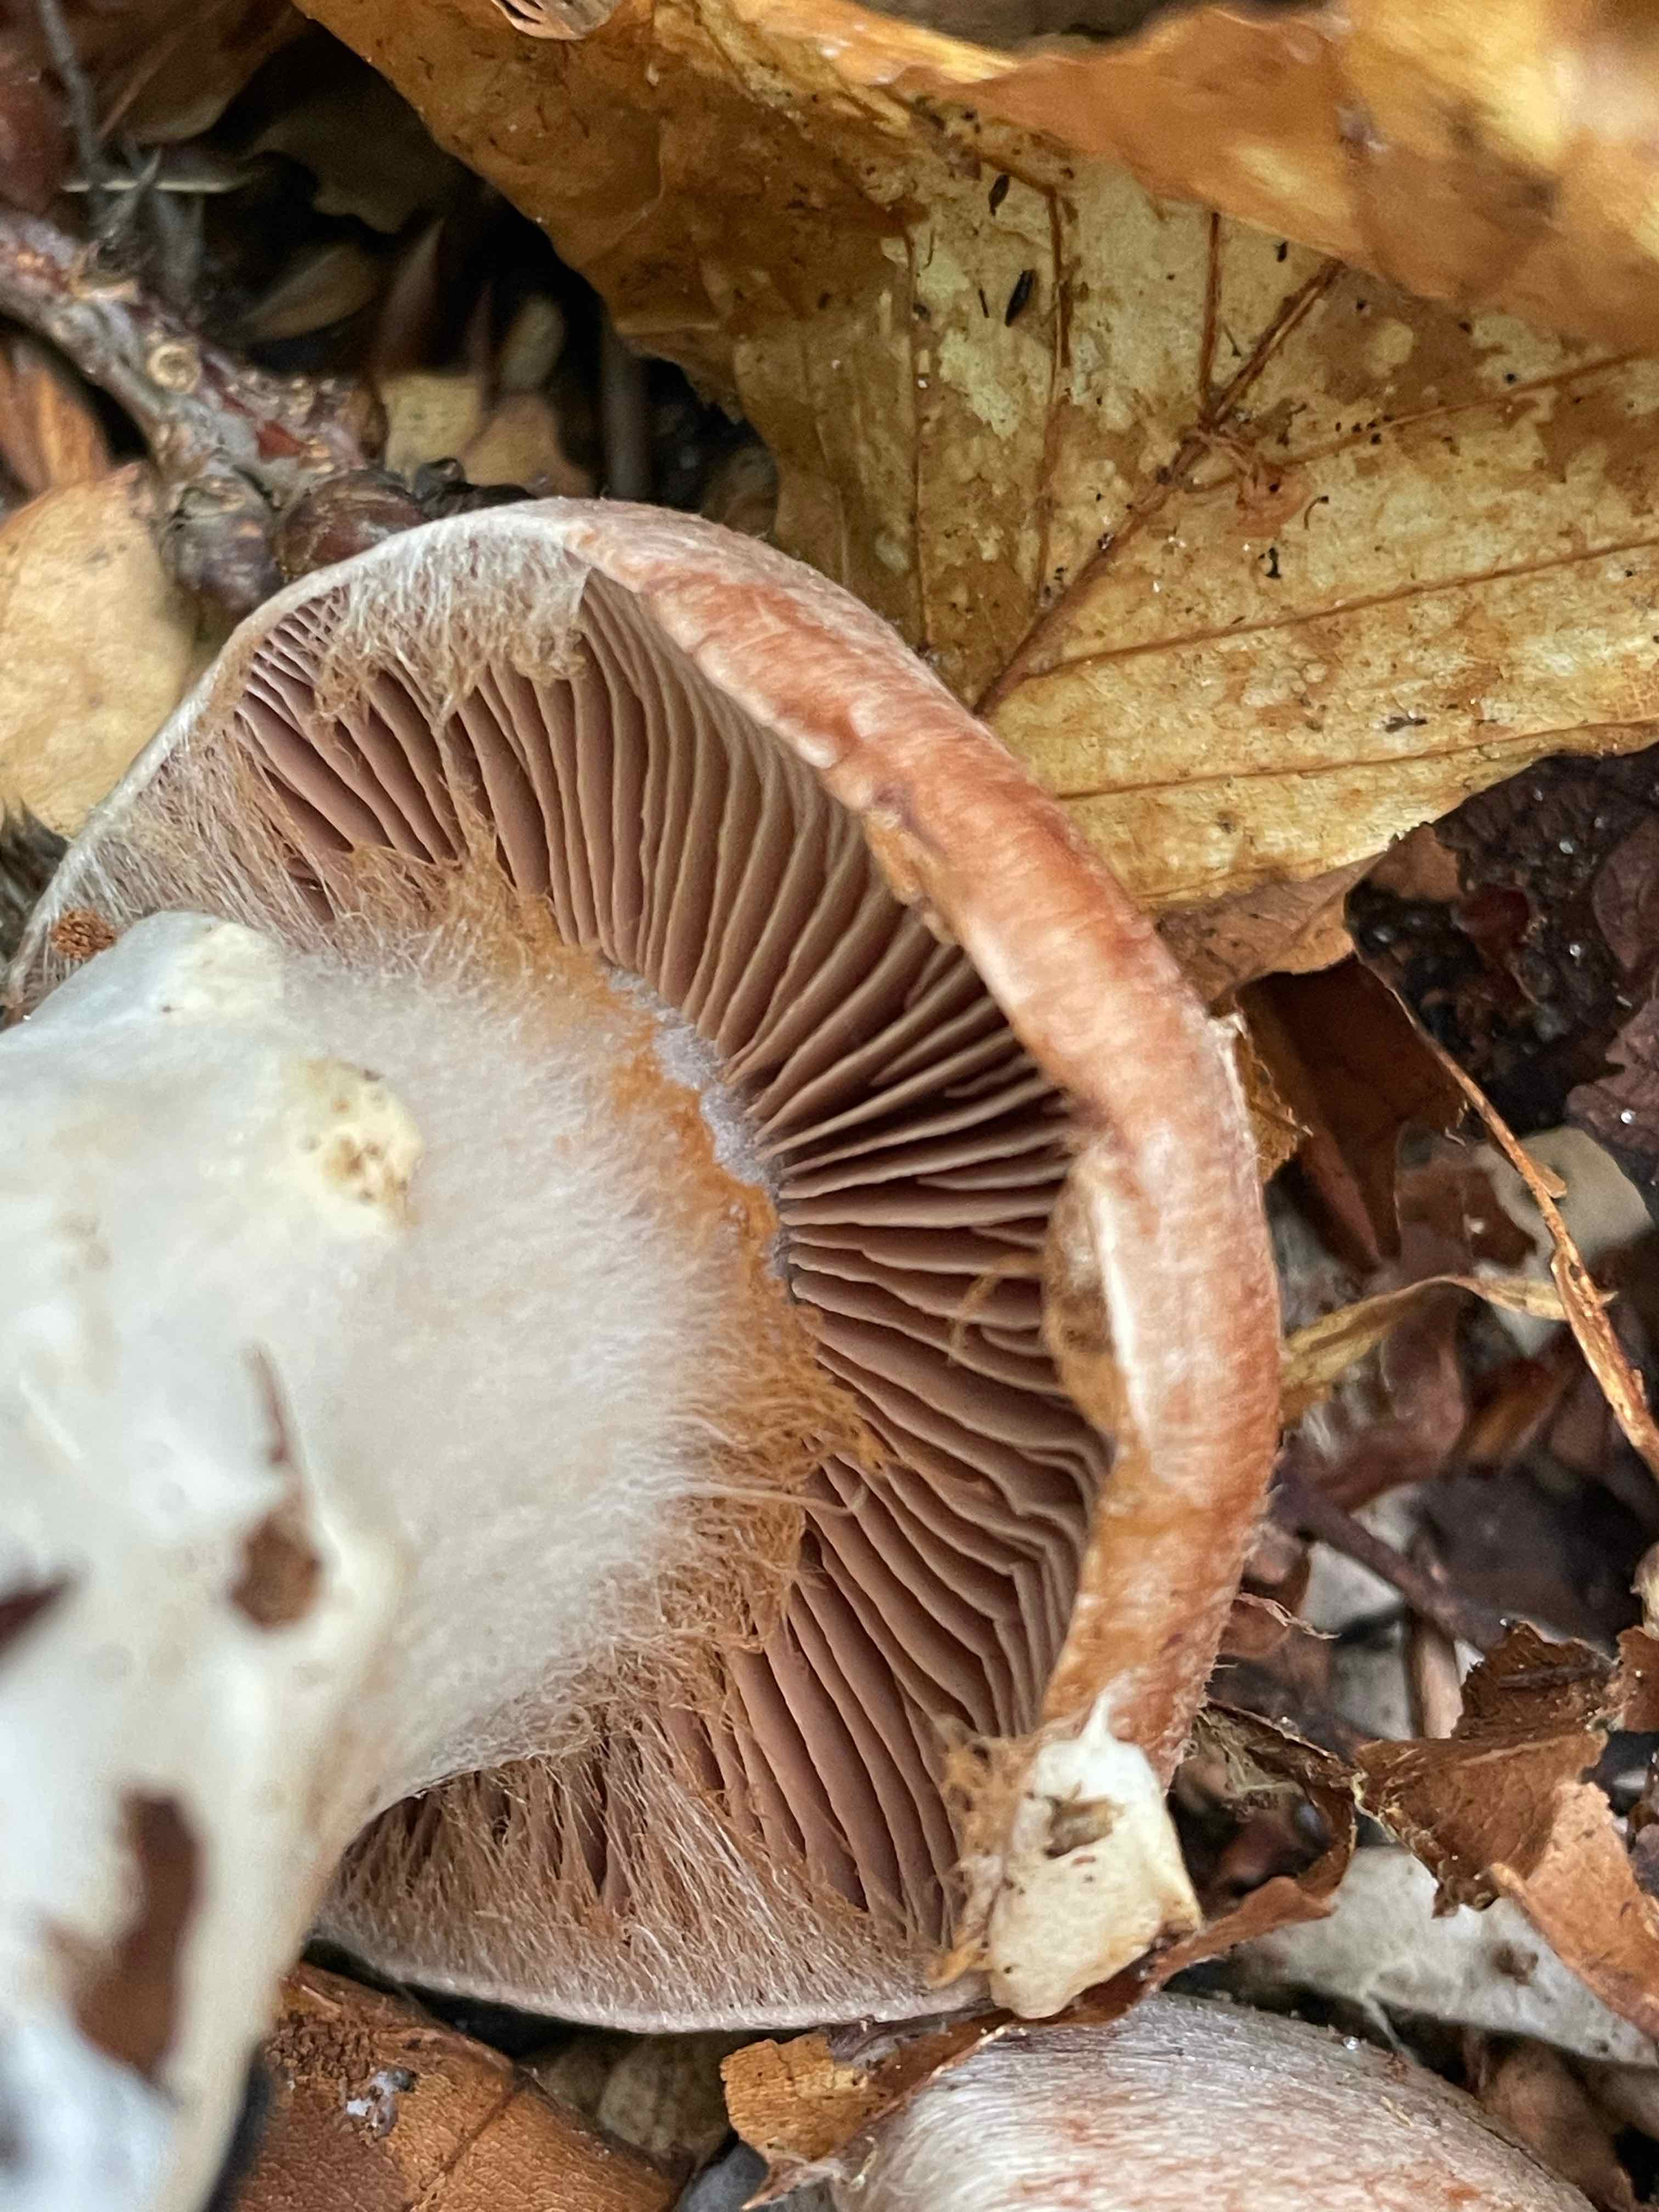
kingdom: Fungi
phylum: Basidiomycota
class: Agaricomycetes
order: Agaricales
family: Cortinariaceae
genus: Cortinarius
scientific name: Cortinarius torvus
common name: champignonagtig slørhat
